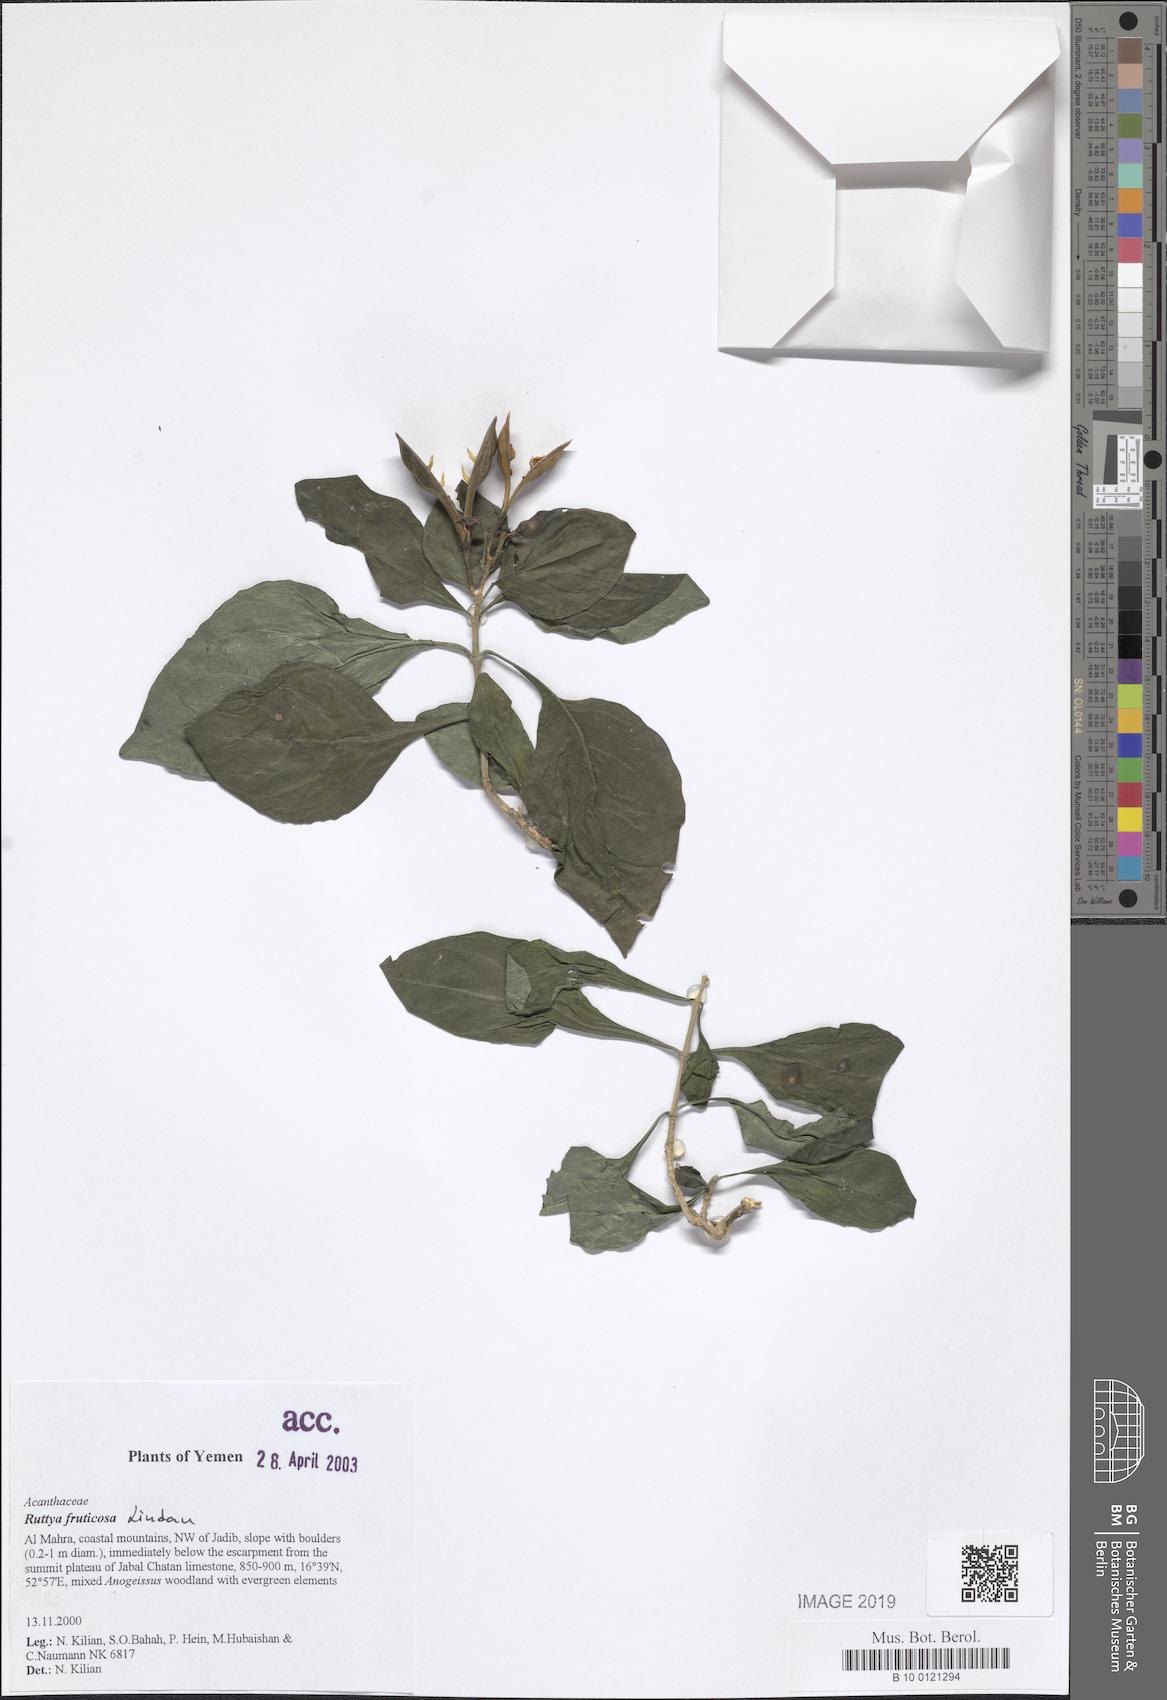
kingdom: Plantae
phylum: Tracheophyta
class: Magnoliopsida
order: Lamiales
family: Acanthaceae
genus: Ruttya
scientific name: Ruttya fruticosa
